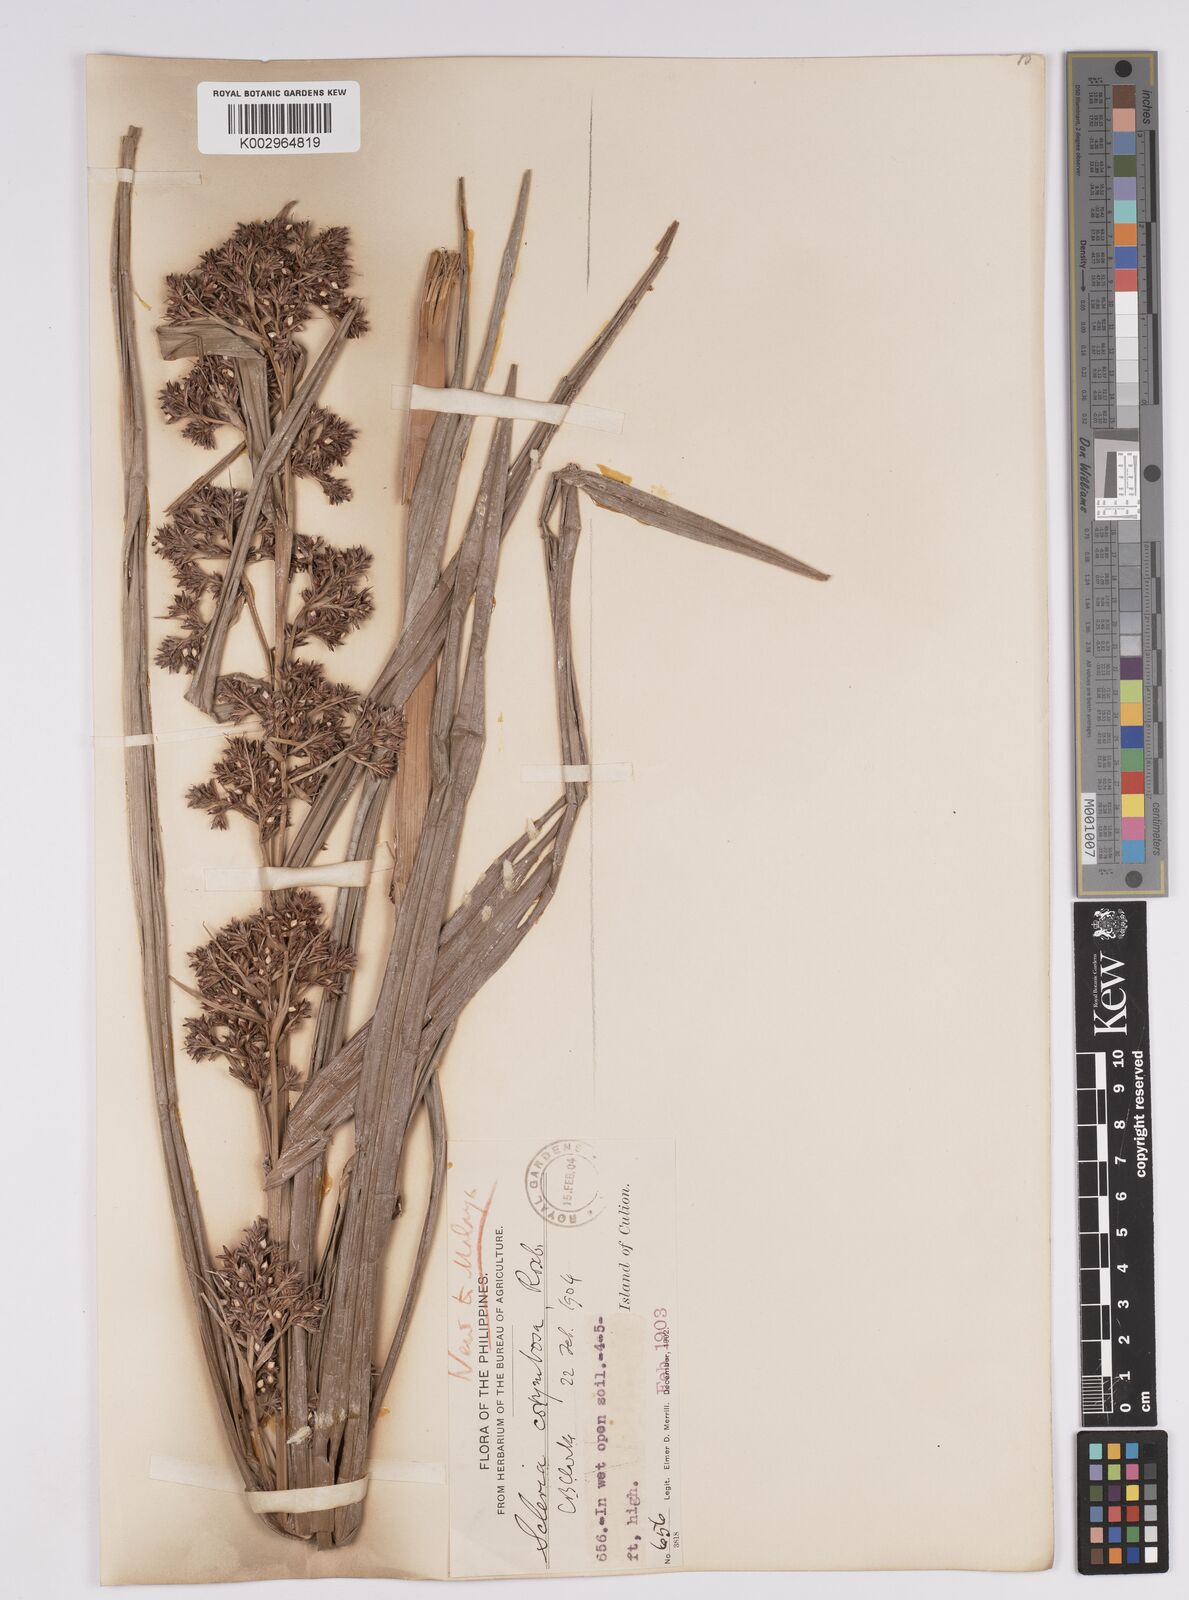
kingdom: Plantae
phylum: Tracheophyta
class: Liliopsida
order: Poales
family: Cyperaceae
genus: Scleria
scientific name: Scleria corymbosa
